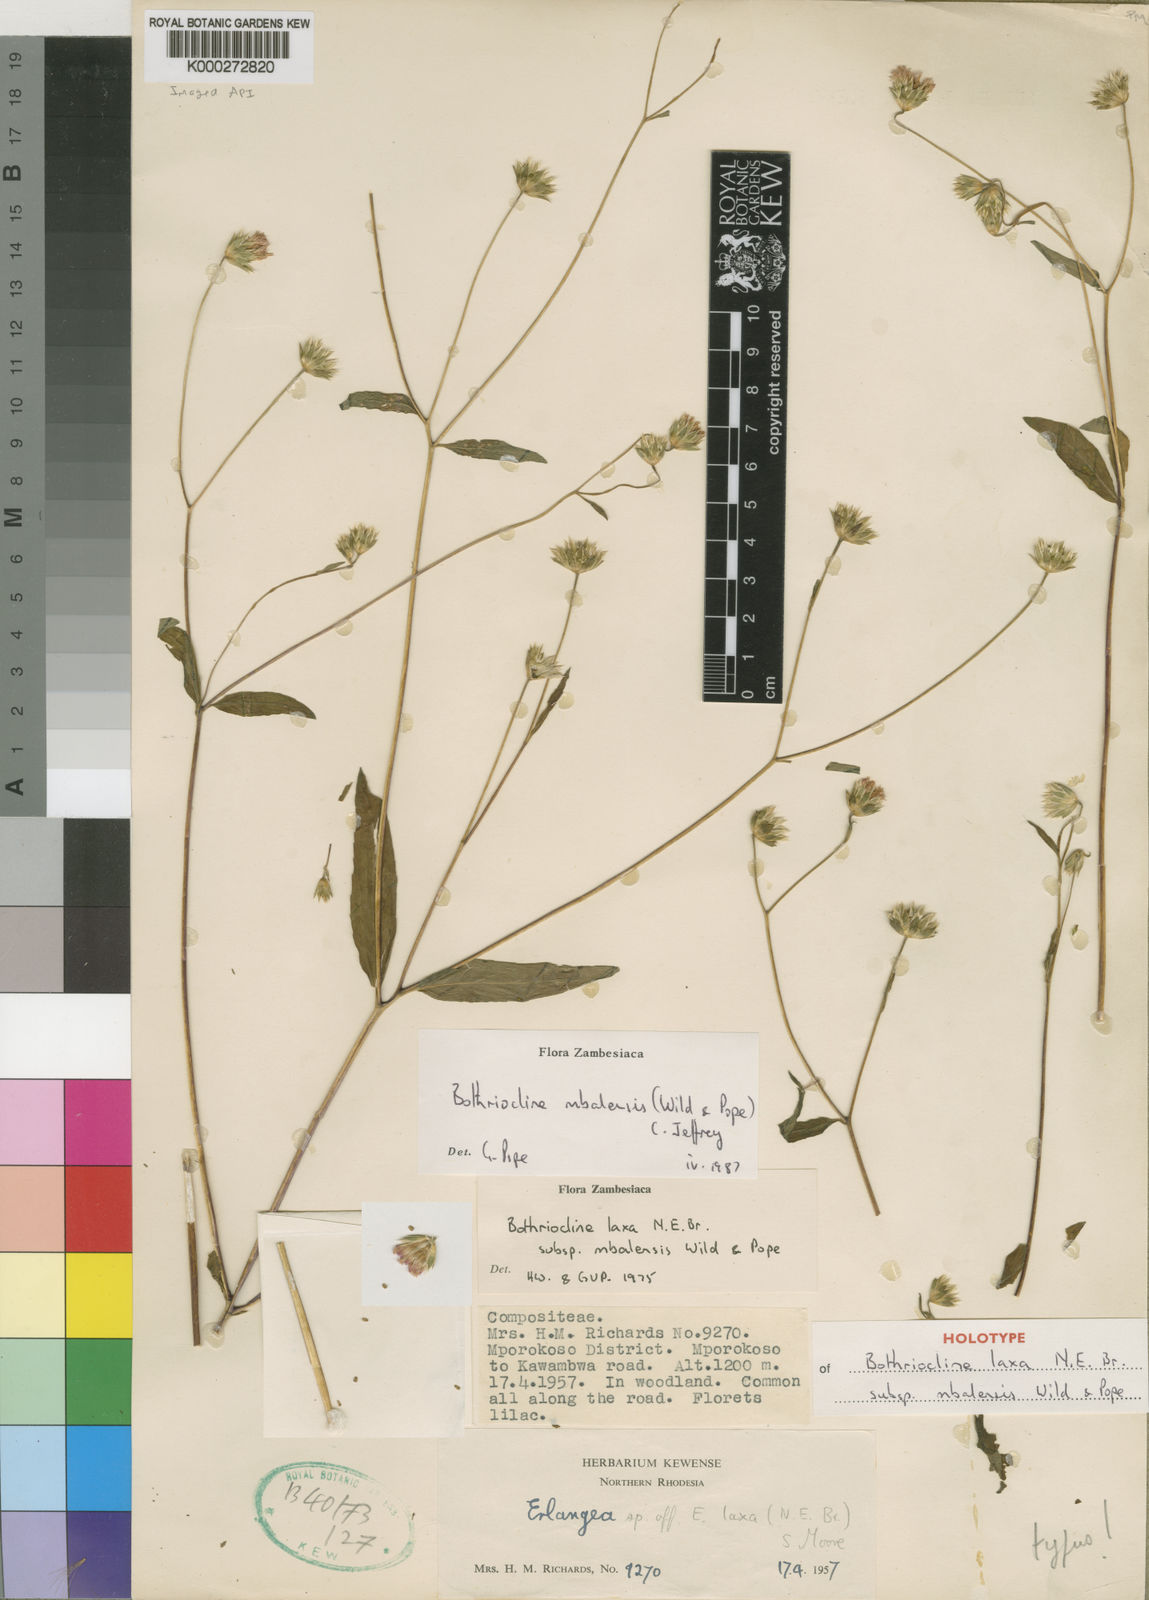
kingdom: Plantae
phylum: Tracheophyta
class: Magnoliopsida
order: Asterales
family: Asteraceae
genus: Bothriocline
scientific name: Bothriocline mbalensis
